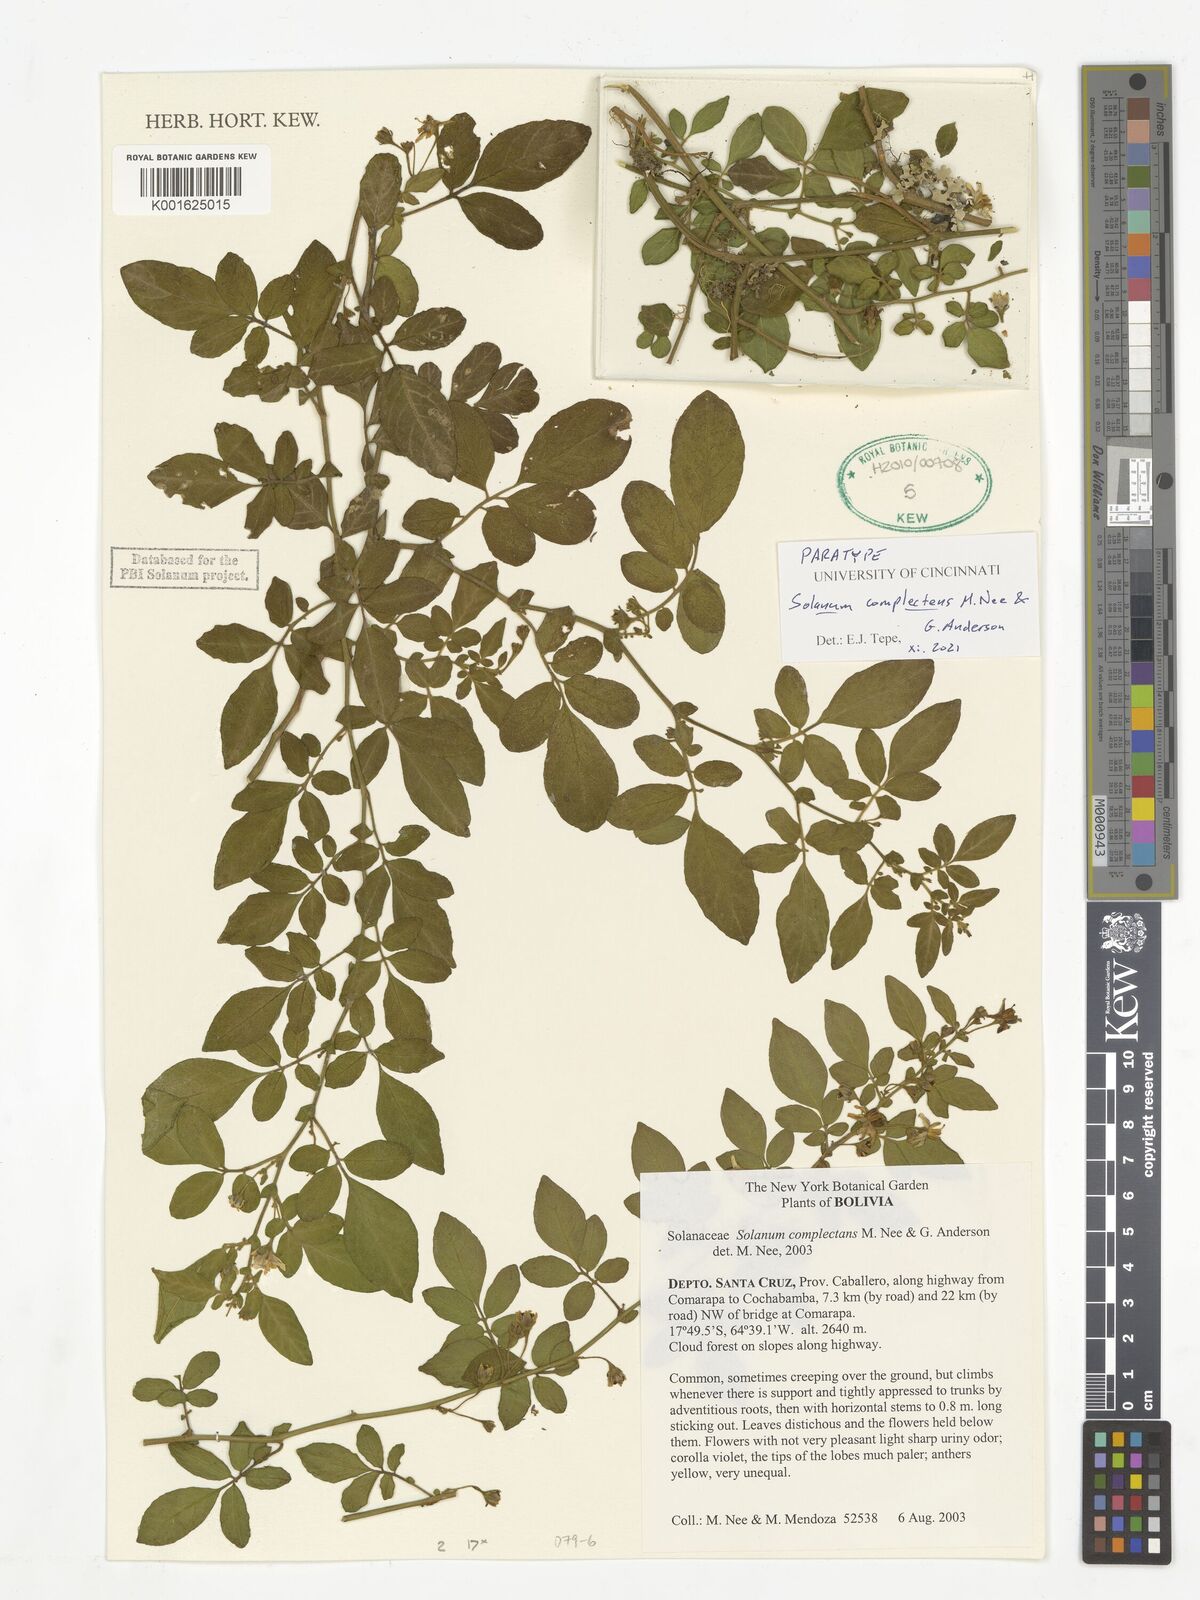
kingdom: Plantae
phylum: Tracheophyta
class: Magnoliopsida
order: Solanales
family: Solanaceae
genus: Solanum
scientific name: Solanum complectens
